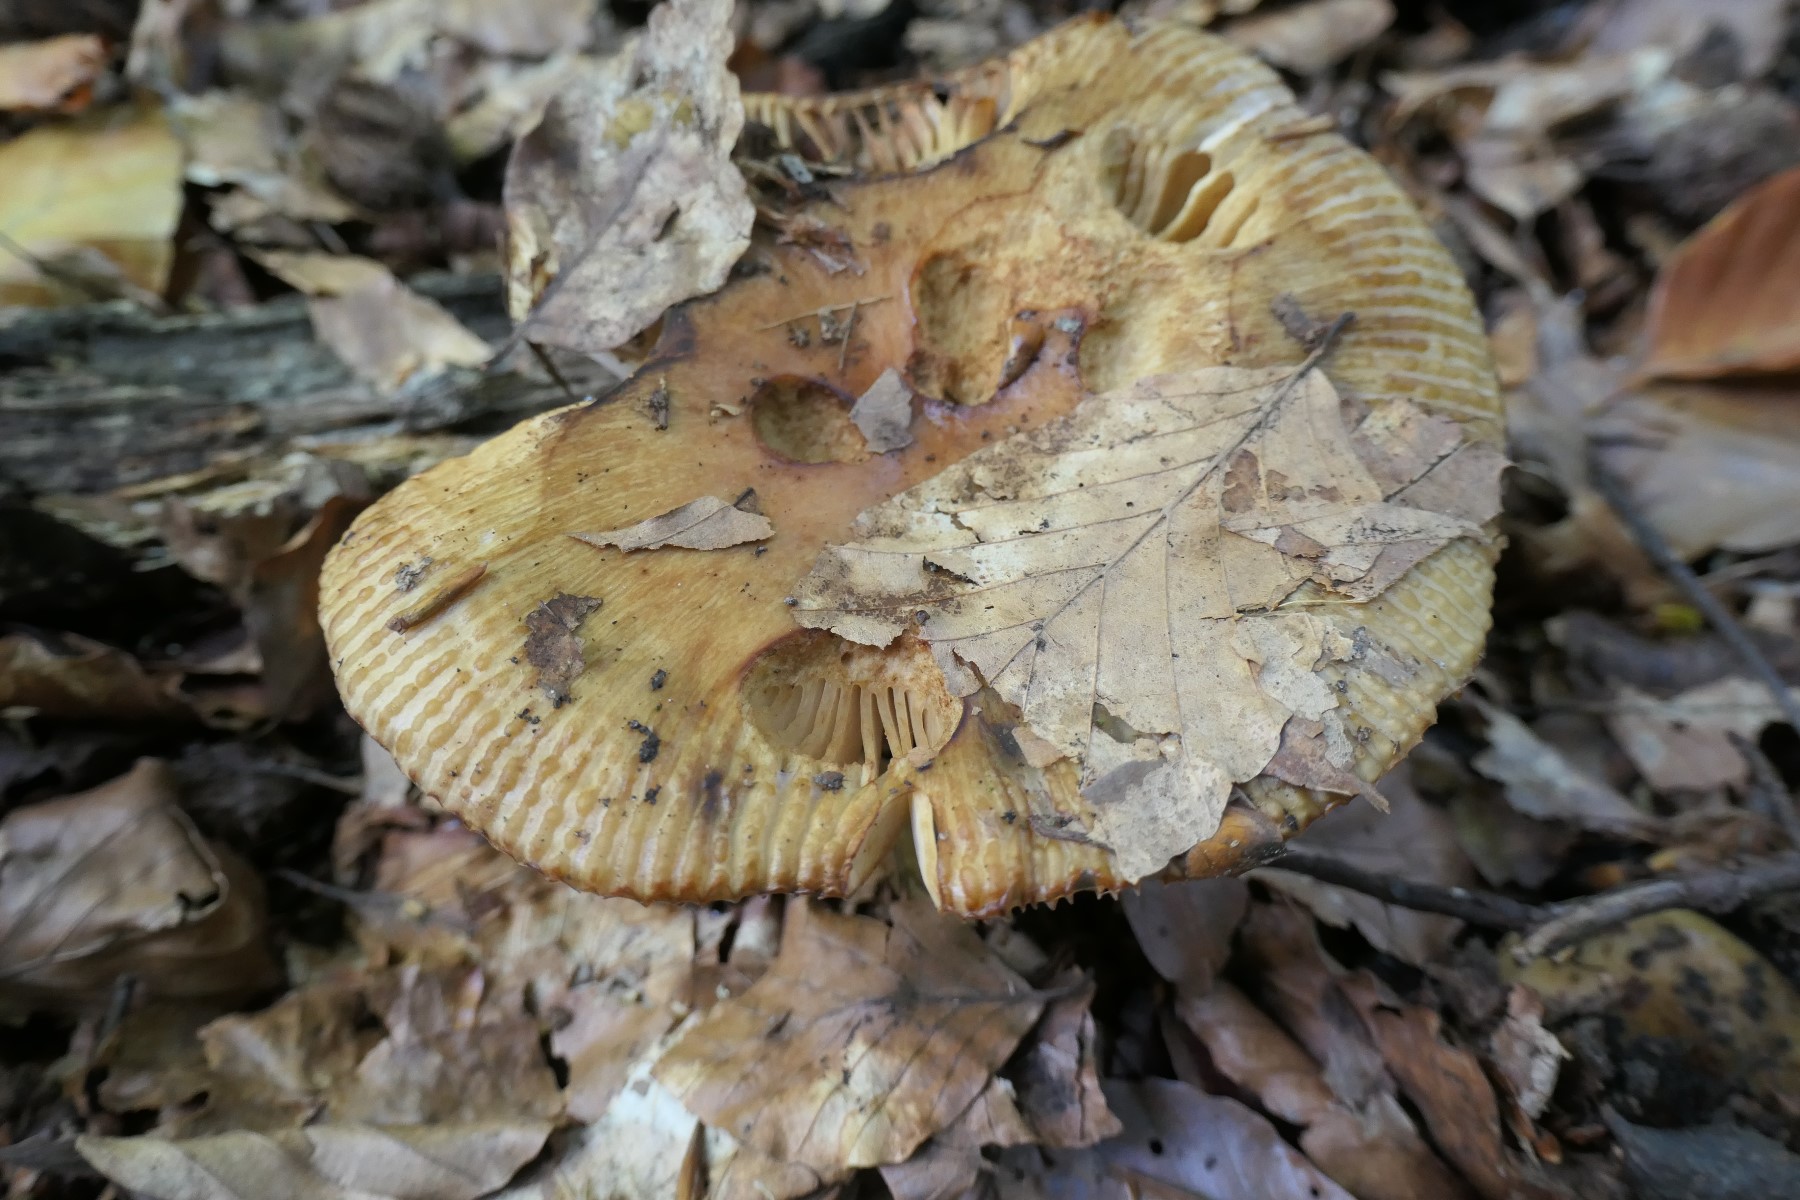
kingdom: Fungi
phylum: Basidiomycota
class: Agaricomycetes
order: Russulales
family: Russulaceae
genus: Russula
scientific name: Russula grata
